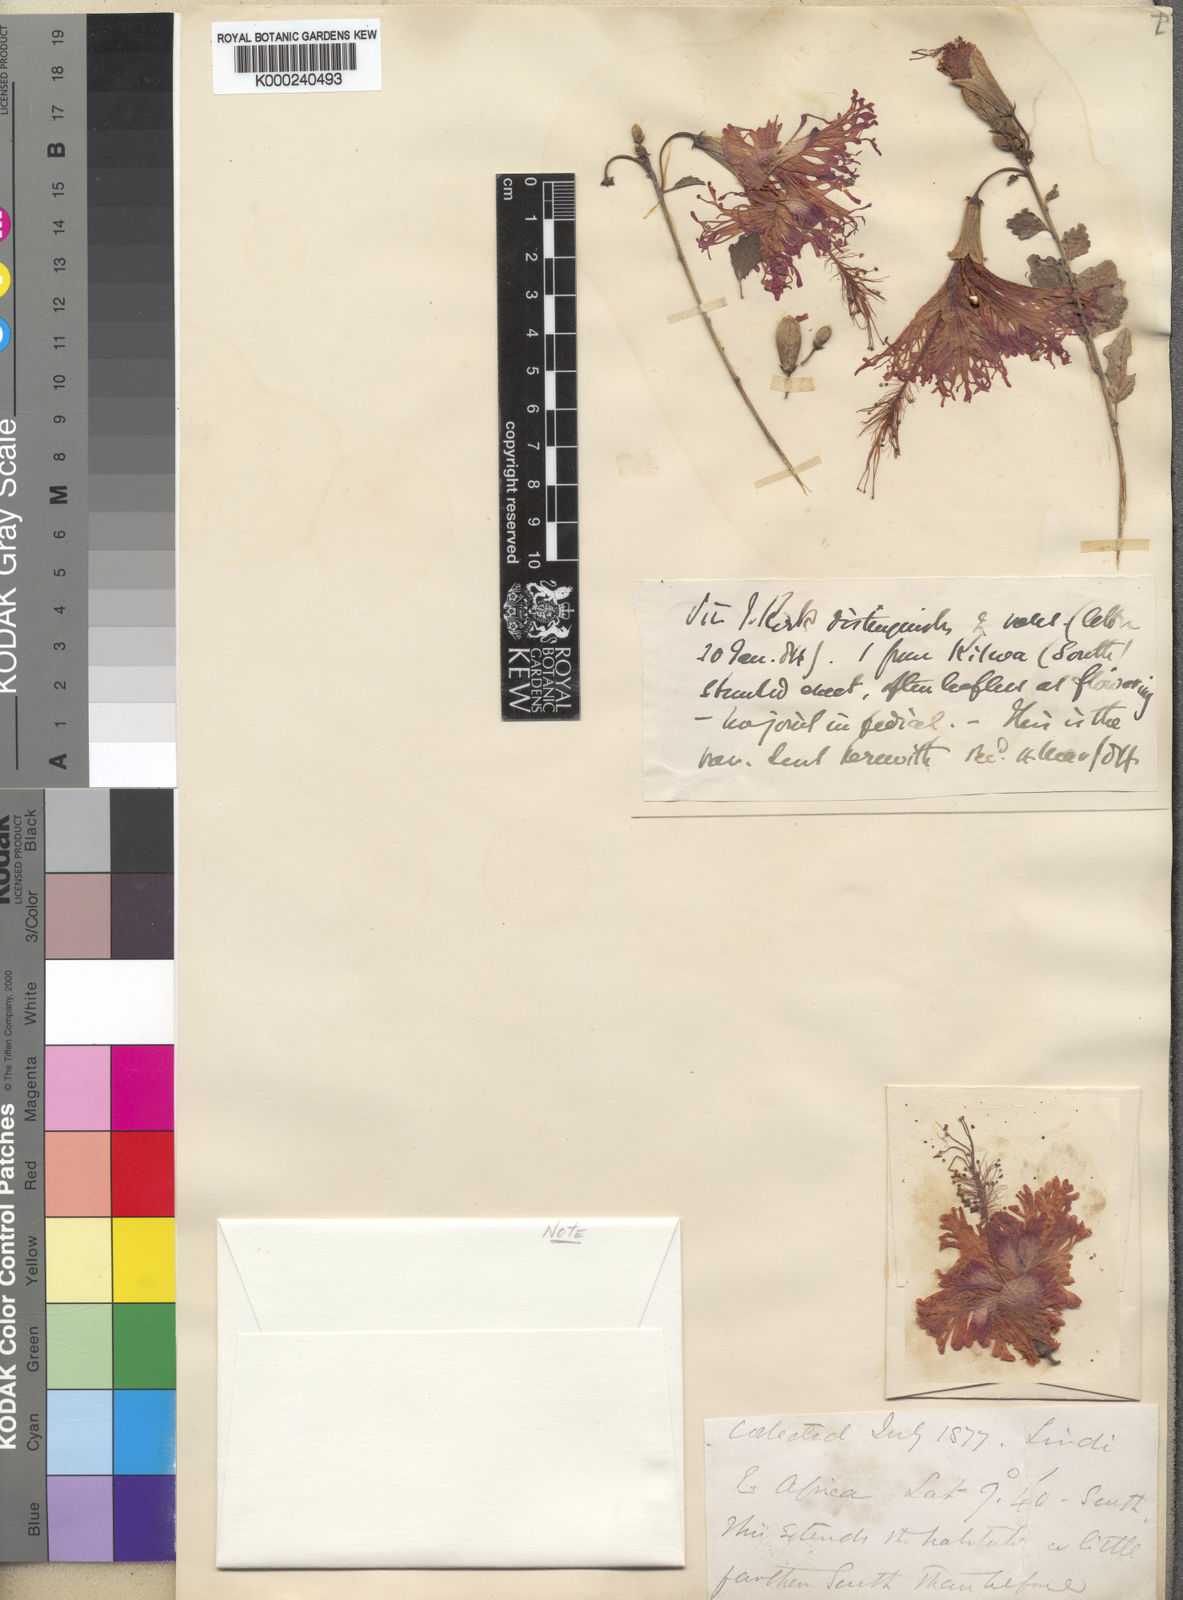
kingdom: Plantae
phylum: Tracheophyta
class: Magnoliopsida
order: Malvales
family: Malvaceae
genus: Hibiscus
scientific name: Hibiscus schizopetalus
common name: Fringed rosemallow
